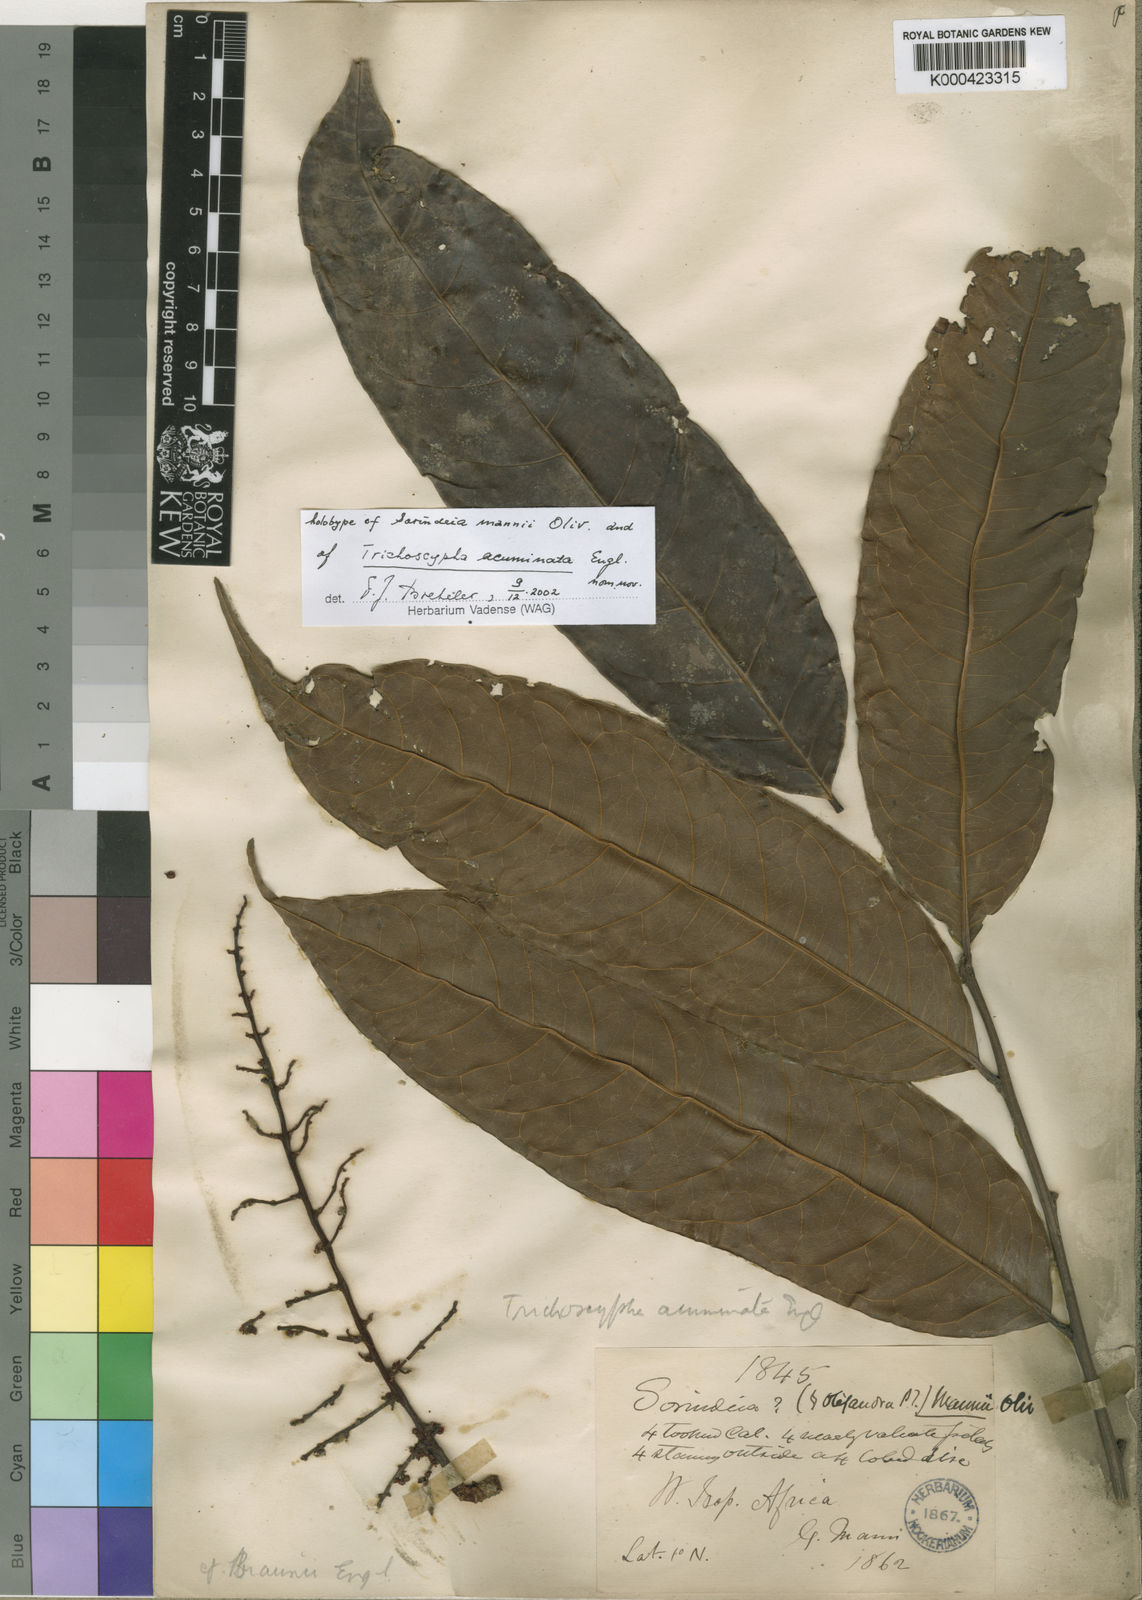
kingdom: Plantae
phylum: Tracheophyta
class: Magnoliopsida
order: Sapindales
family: Anacardiaceae
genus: Trichoscypha
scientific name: Trichoscypha acuminata
